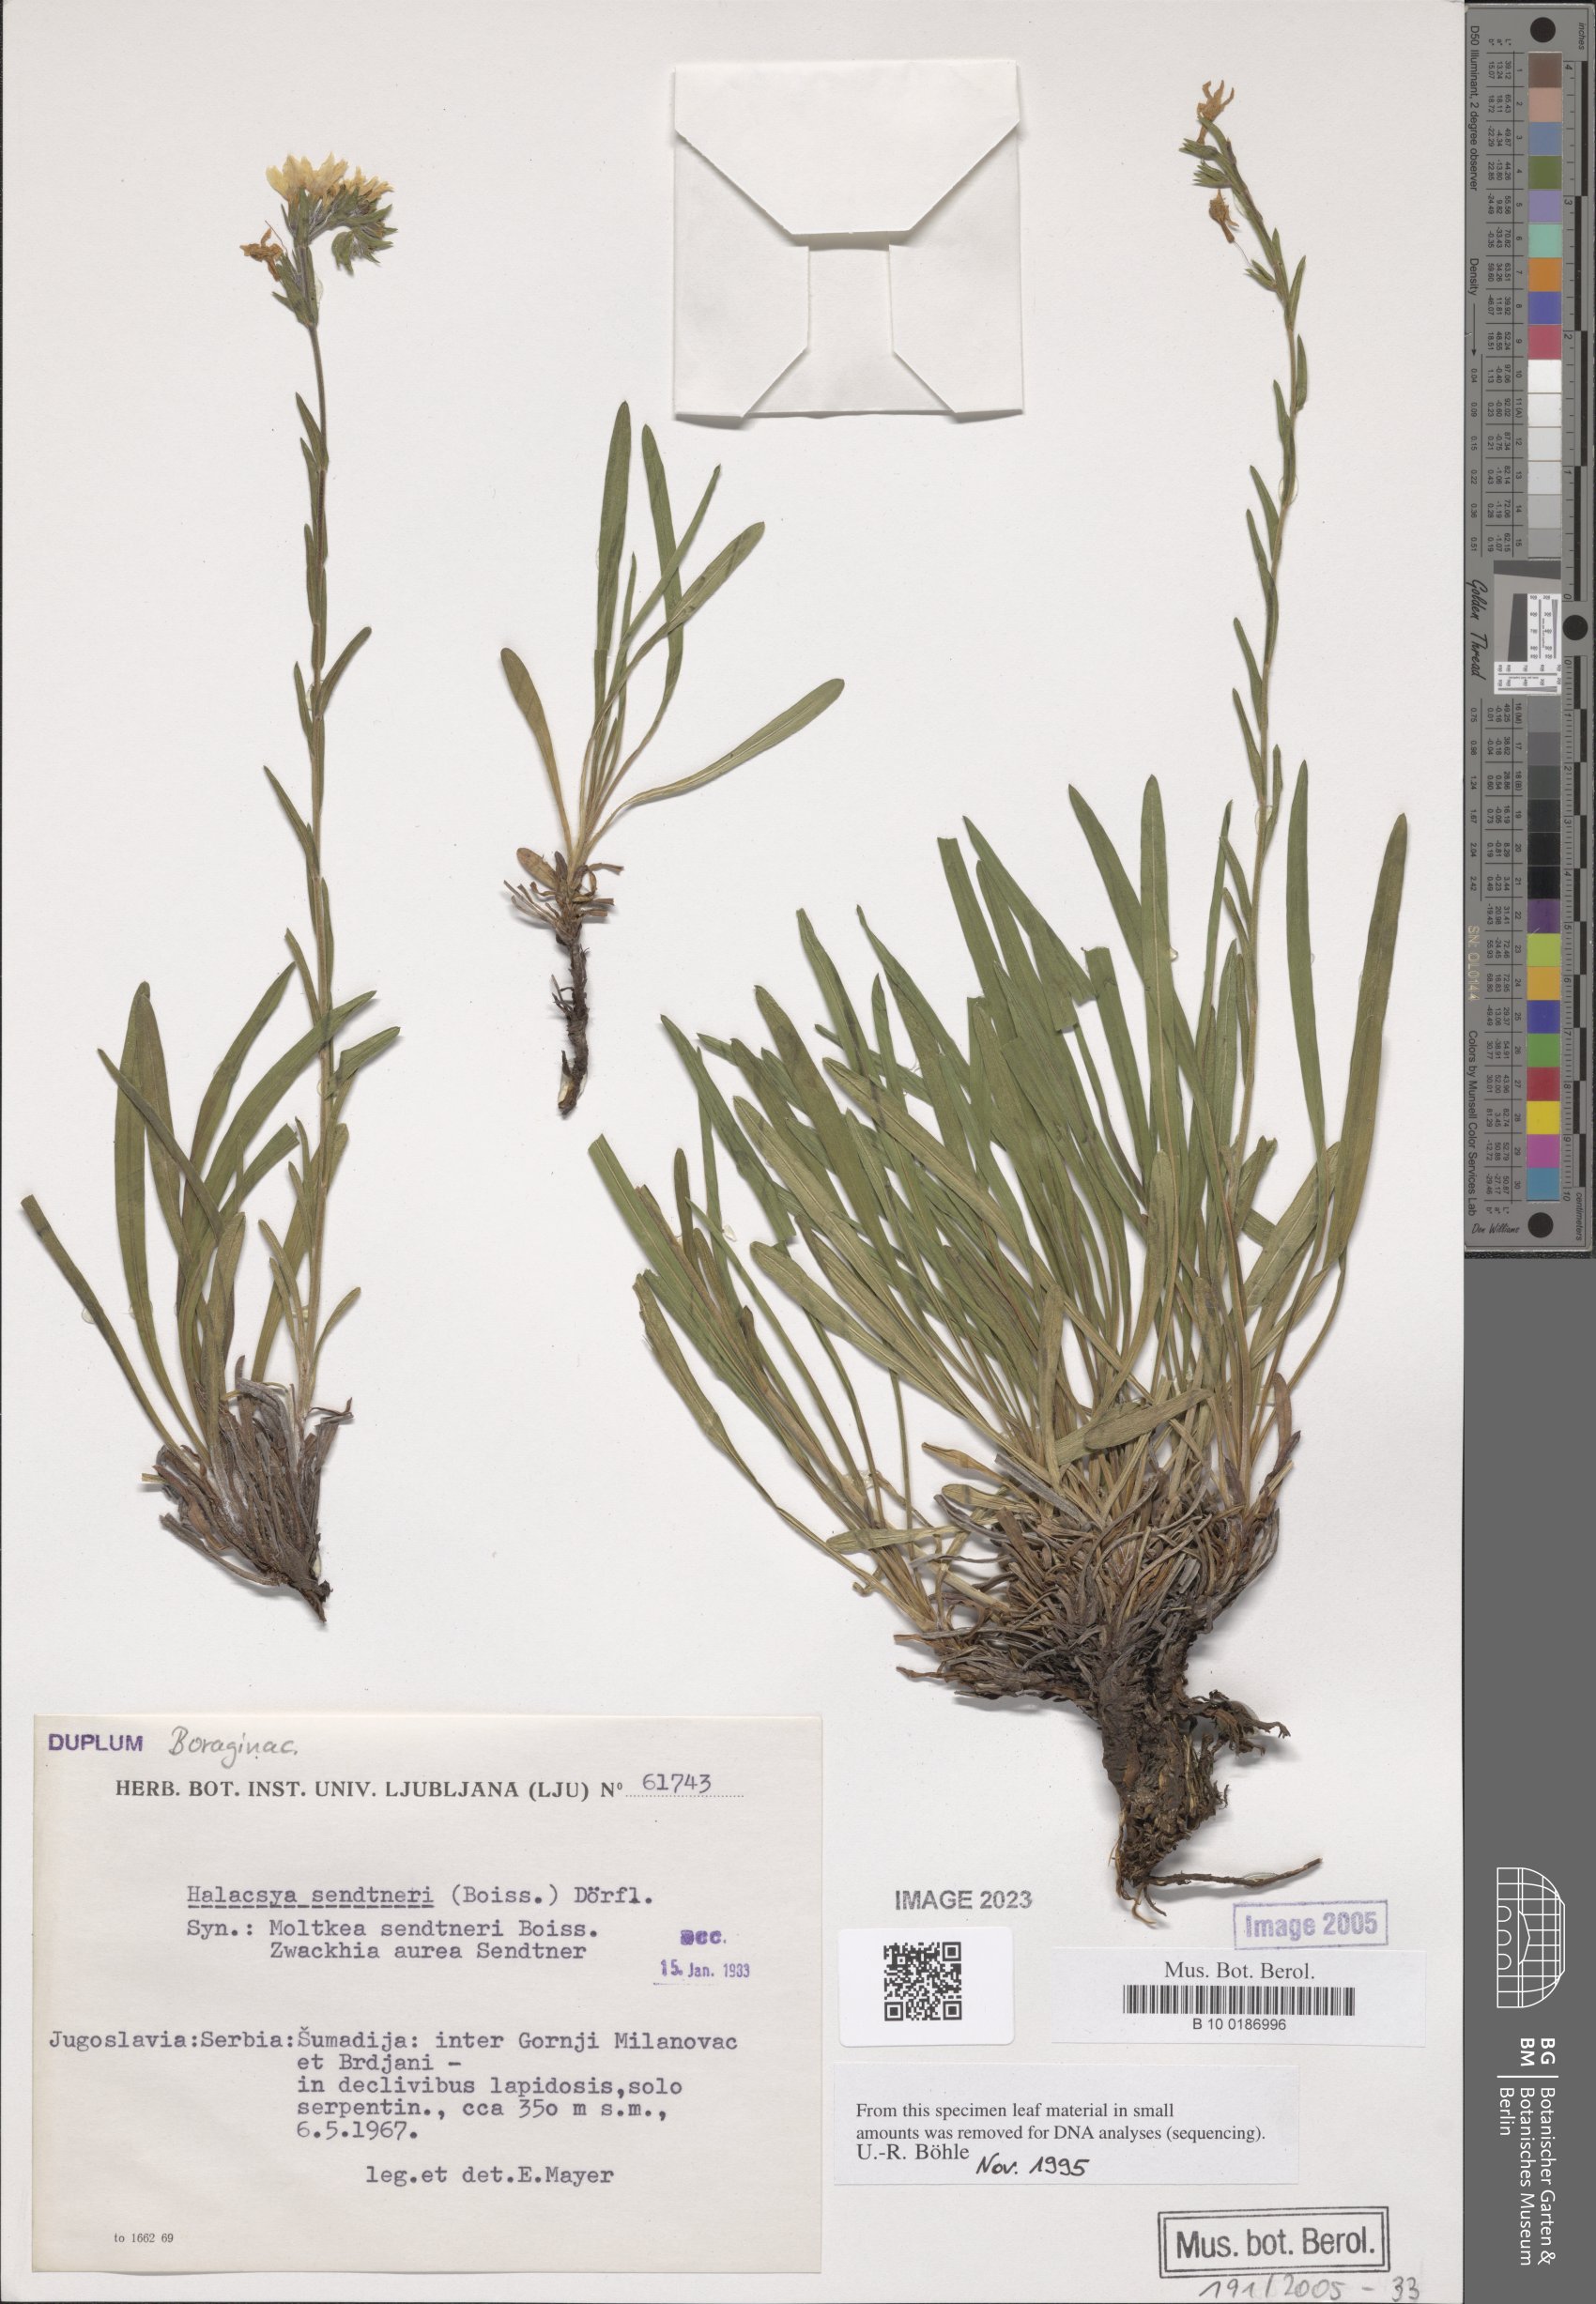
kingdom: Plantae
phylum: Tracheophyta
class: Magnoliopsida
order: Boraginales
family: Boraginaceae
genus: Halacsya
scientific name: Halacsya sendtneri
